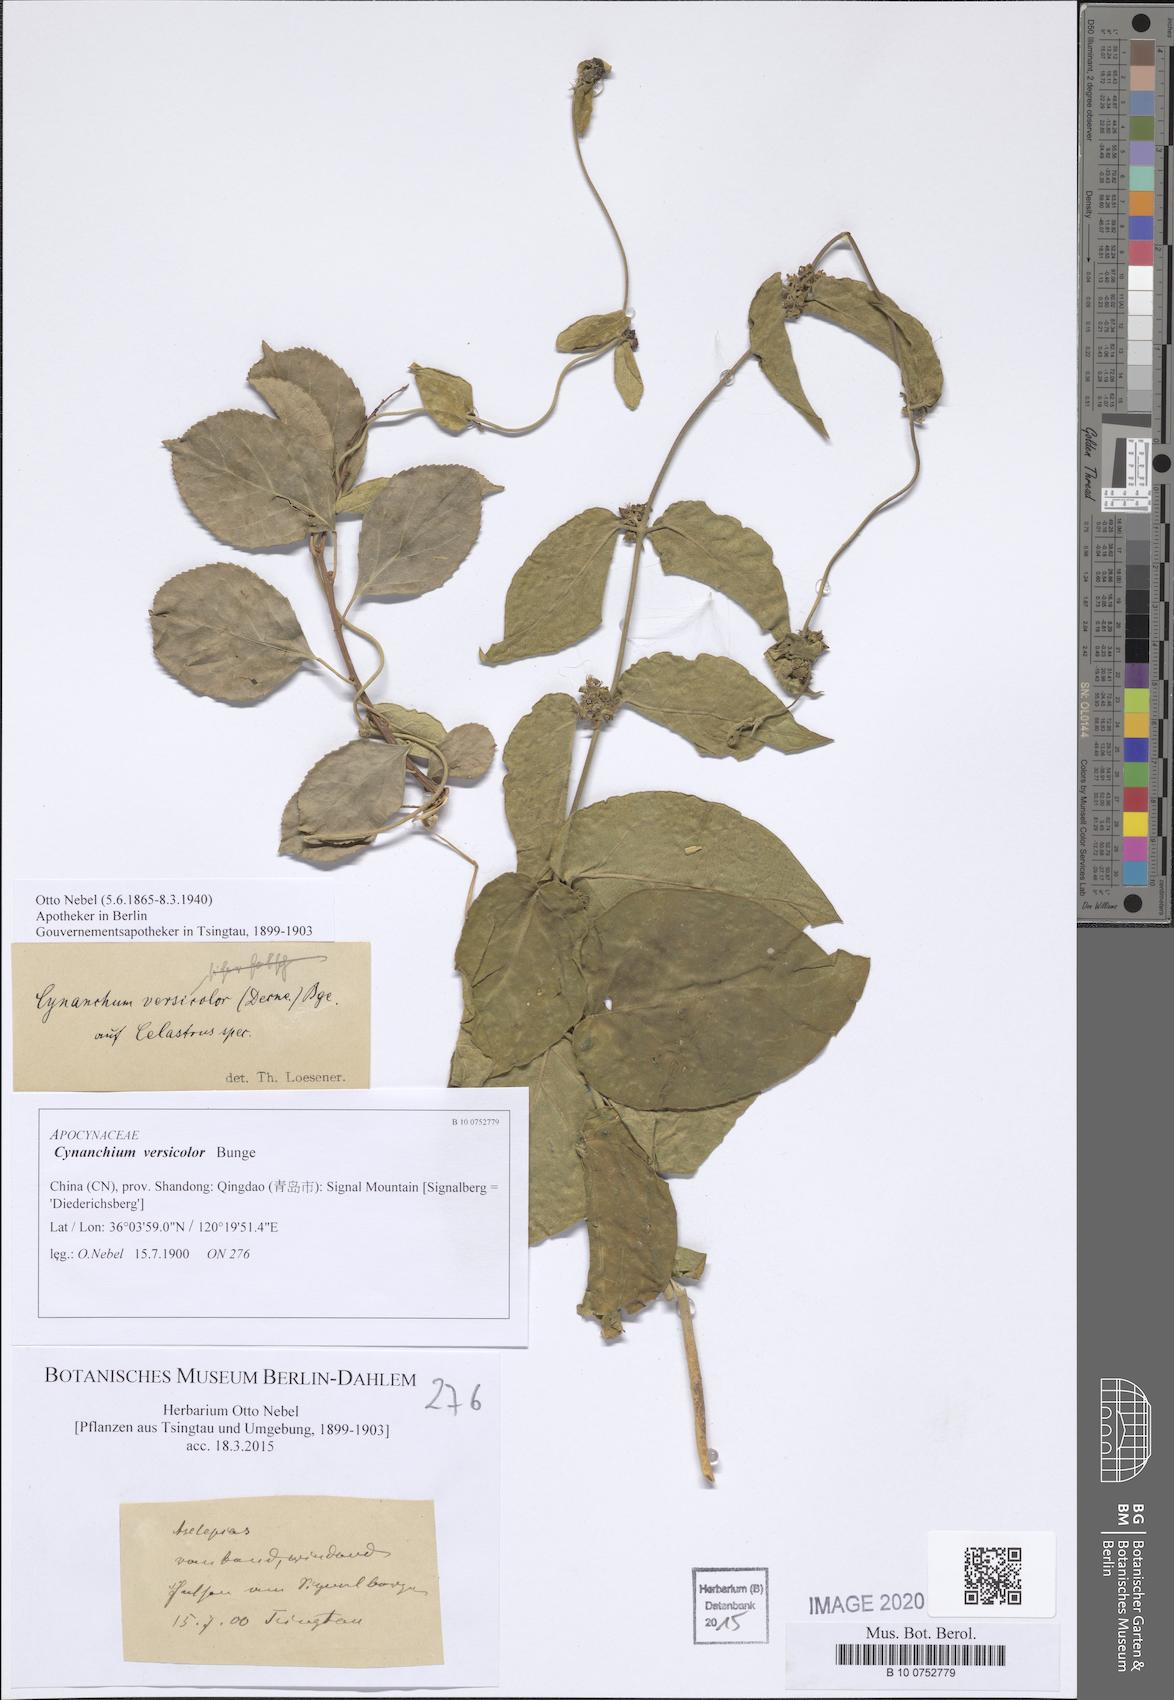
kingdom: Plantae
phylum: Tracheophyta
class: Magnoliopsida
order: Gentianales
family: Apocynaceae
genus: Vincetoxicum
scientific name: Vincetoxicum versicolor
